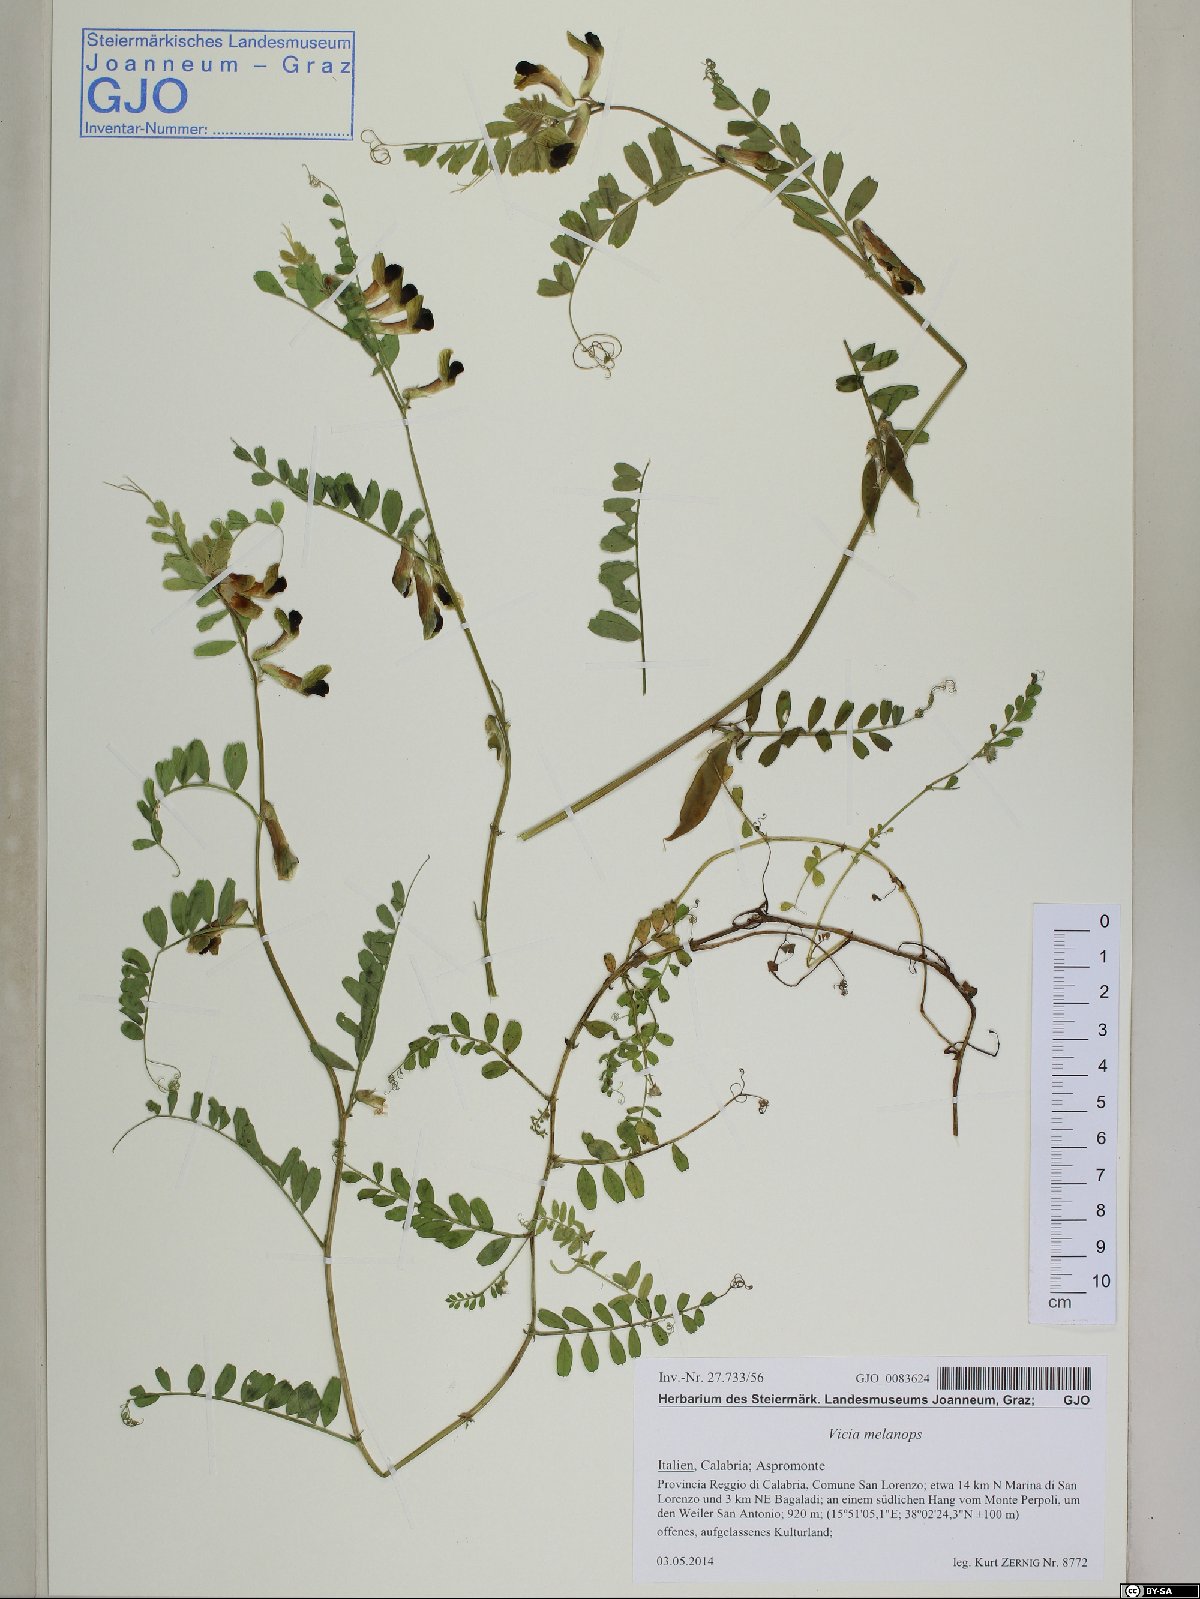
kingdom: Plantae
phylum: Tracheophyta
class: Magnoliopsida
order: Fabales
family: Fabaceae
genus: Vicia
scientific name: Vicia melanops
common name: Black-eyed vetch
